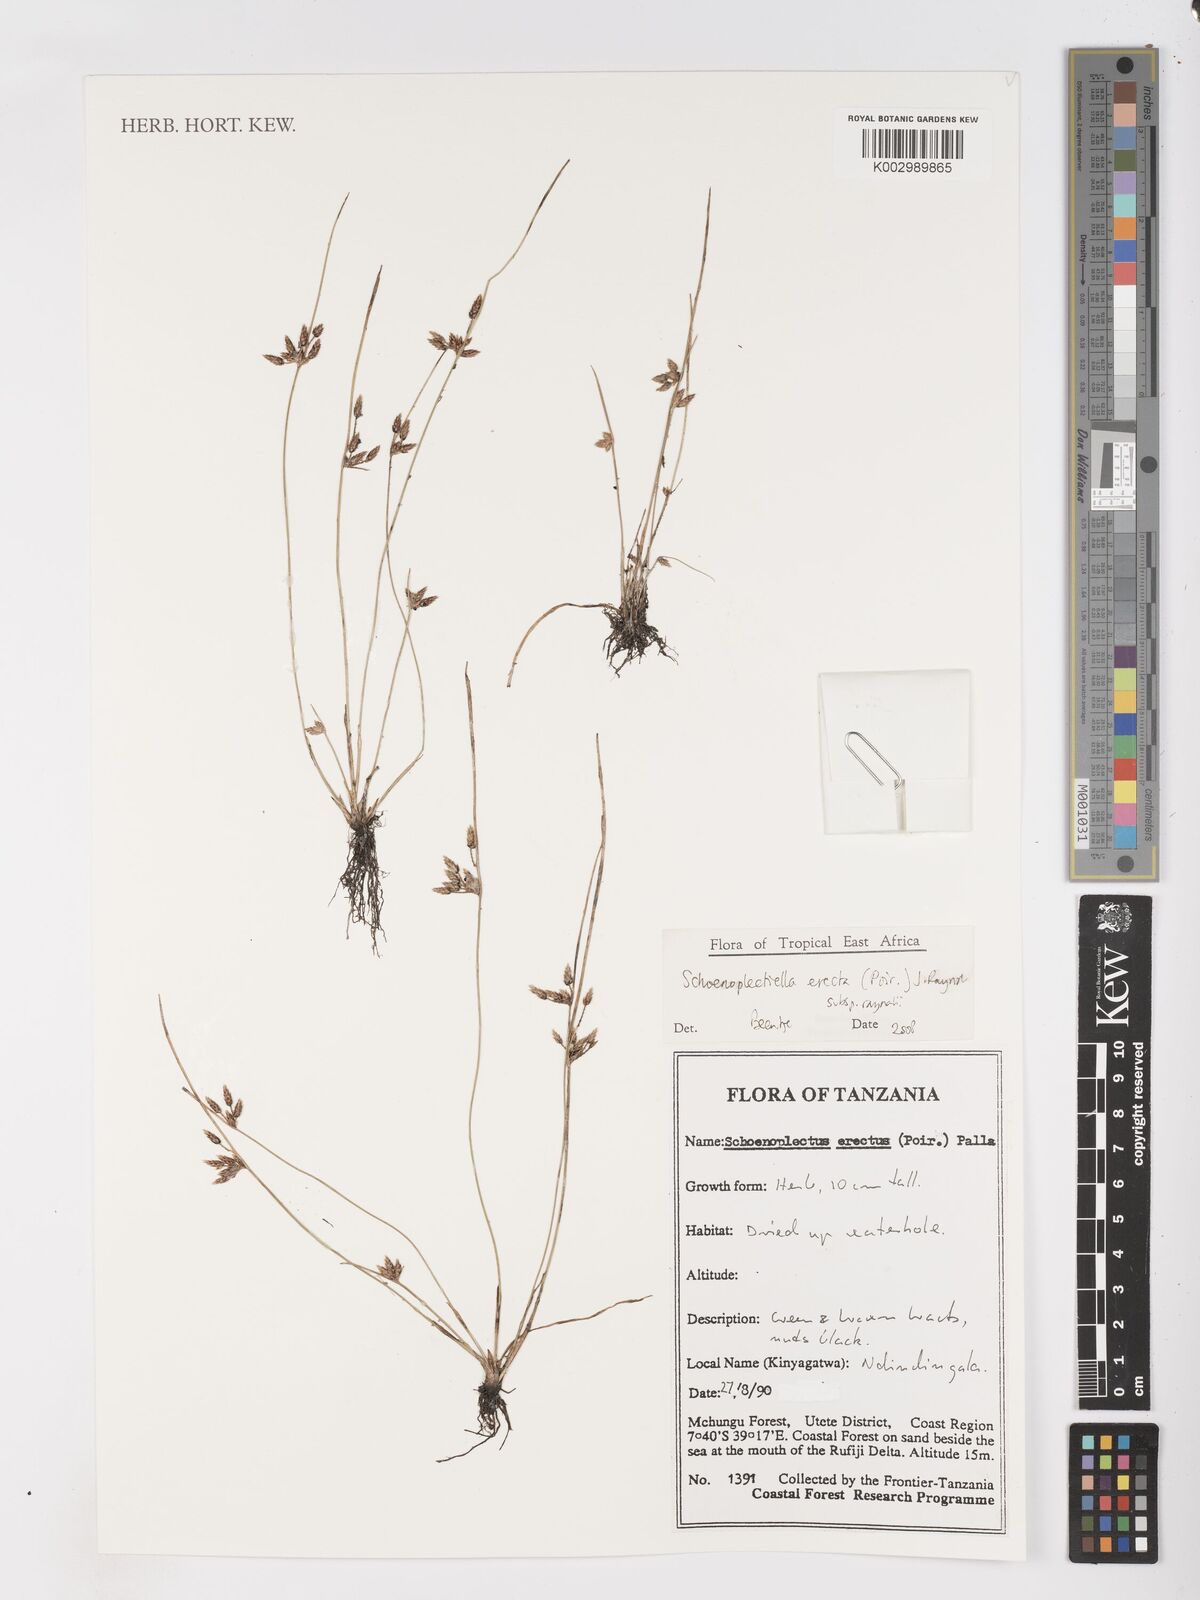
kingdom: Plantae
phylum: Tracheophyta
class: Liliopsida
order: Poales
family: Cyperaceae
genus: Schoenoplectiella
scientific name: Schoenoplectiella erecta
